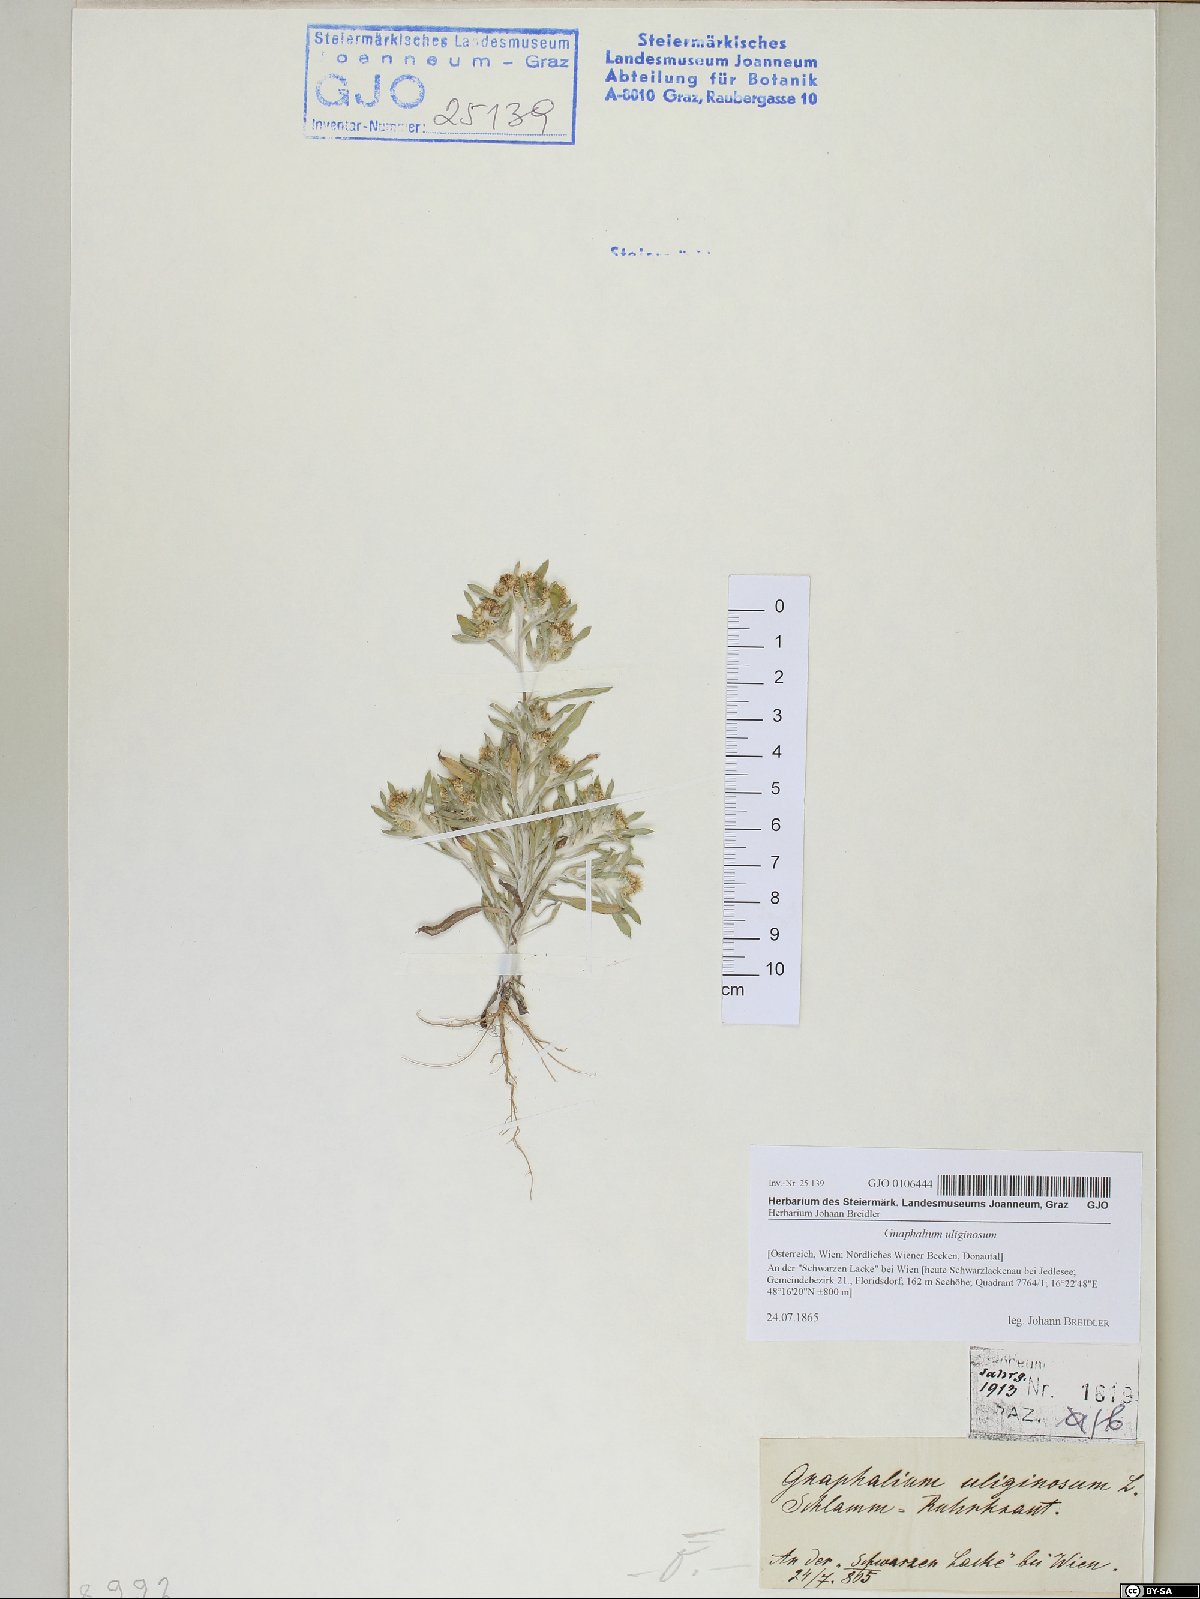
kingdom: Plantae
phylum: Tracheophyta
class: Magnoliopsida
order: Asterales
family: Asteraceae
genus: Gnaphalium
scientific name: Gnaphalium uliginosum
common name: Marsh cudweed
